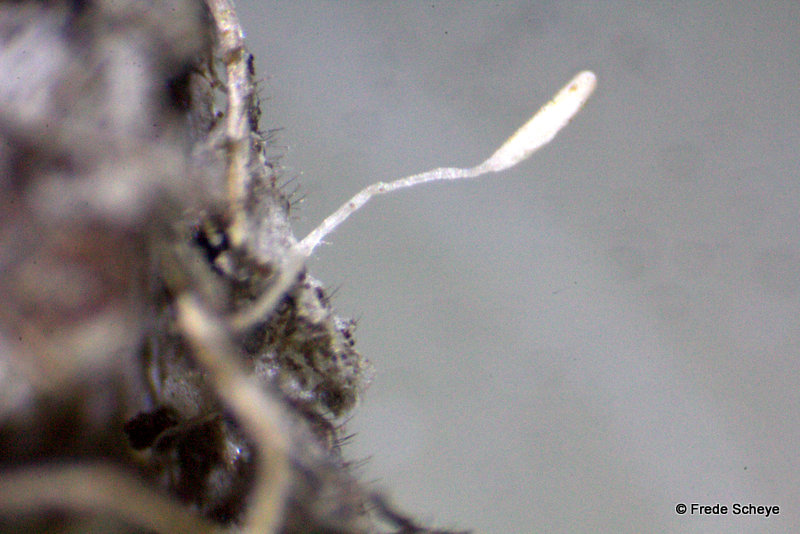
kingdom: Fungi
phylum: Basidiomycota
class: Agaricomycetes
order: Agaricales
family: Typhulaceae
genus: Typhula
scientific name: Typhula setipes
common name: liden trådkølle
